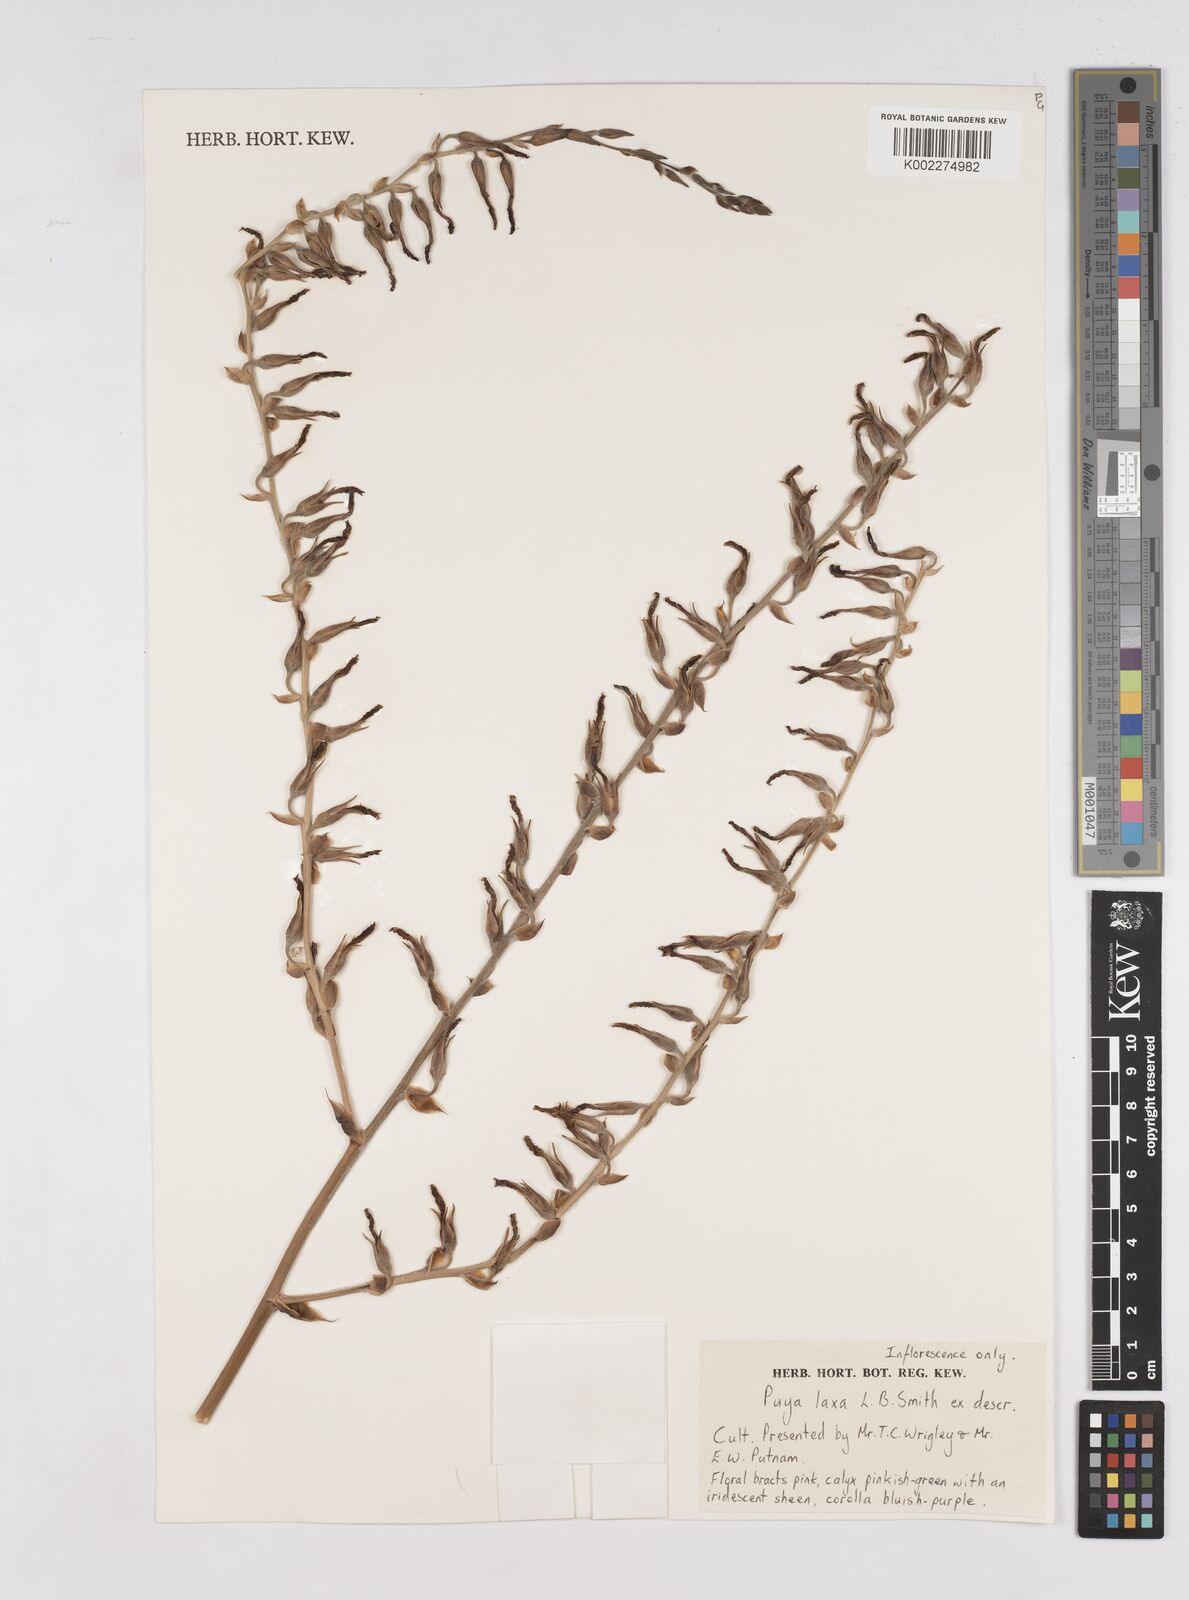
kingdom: Plantae
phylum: Tracheophyta
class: Liliopsida
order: Poales
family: Bromeliaceae
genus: Puya
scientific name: Puya laxa
